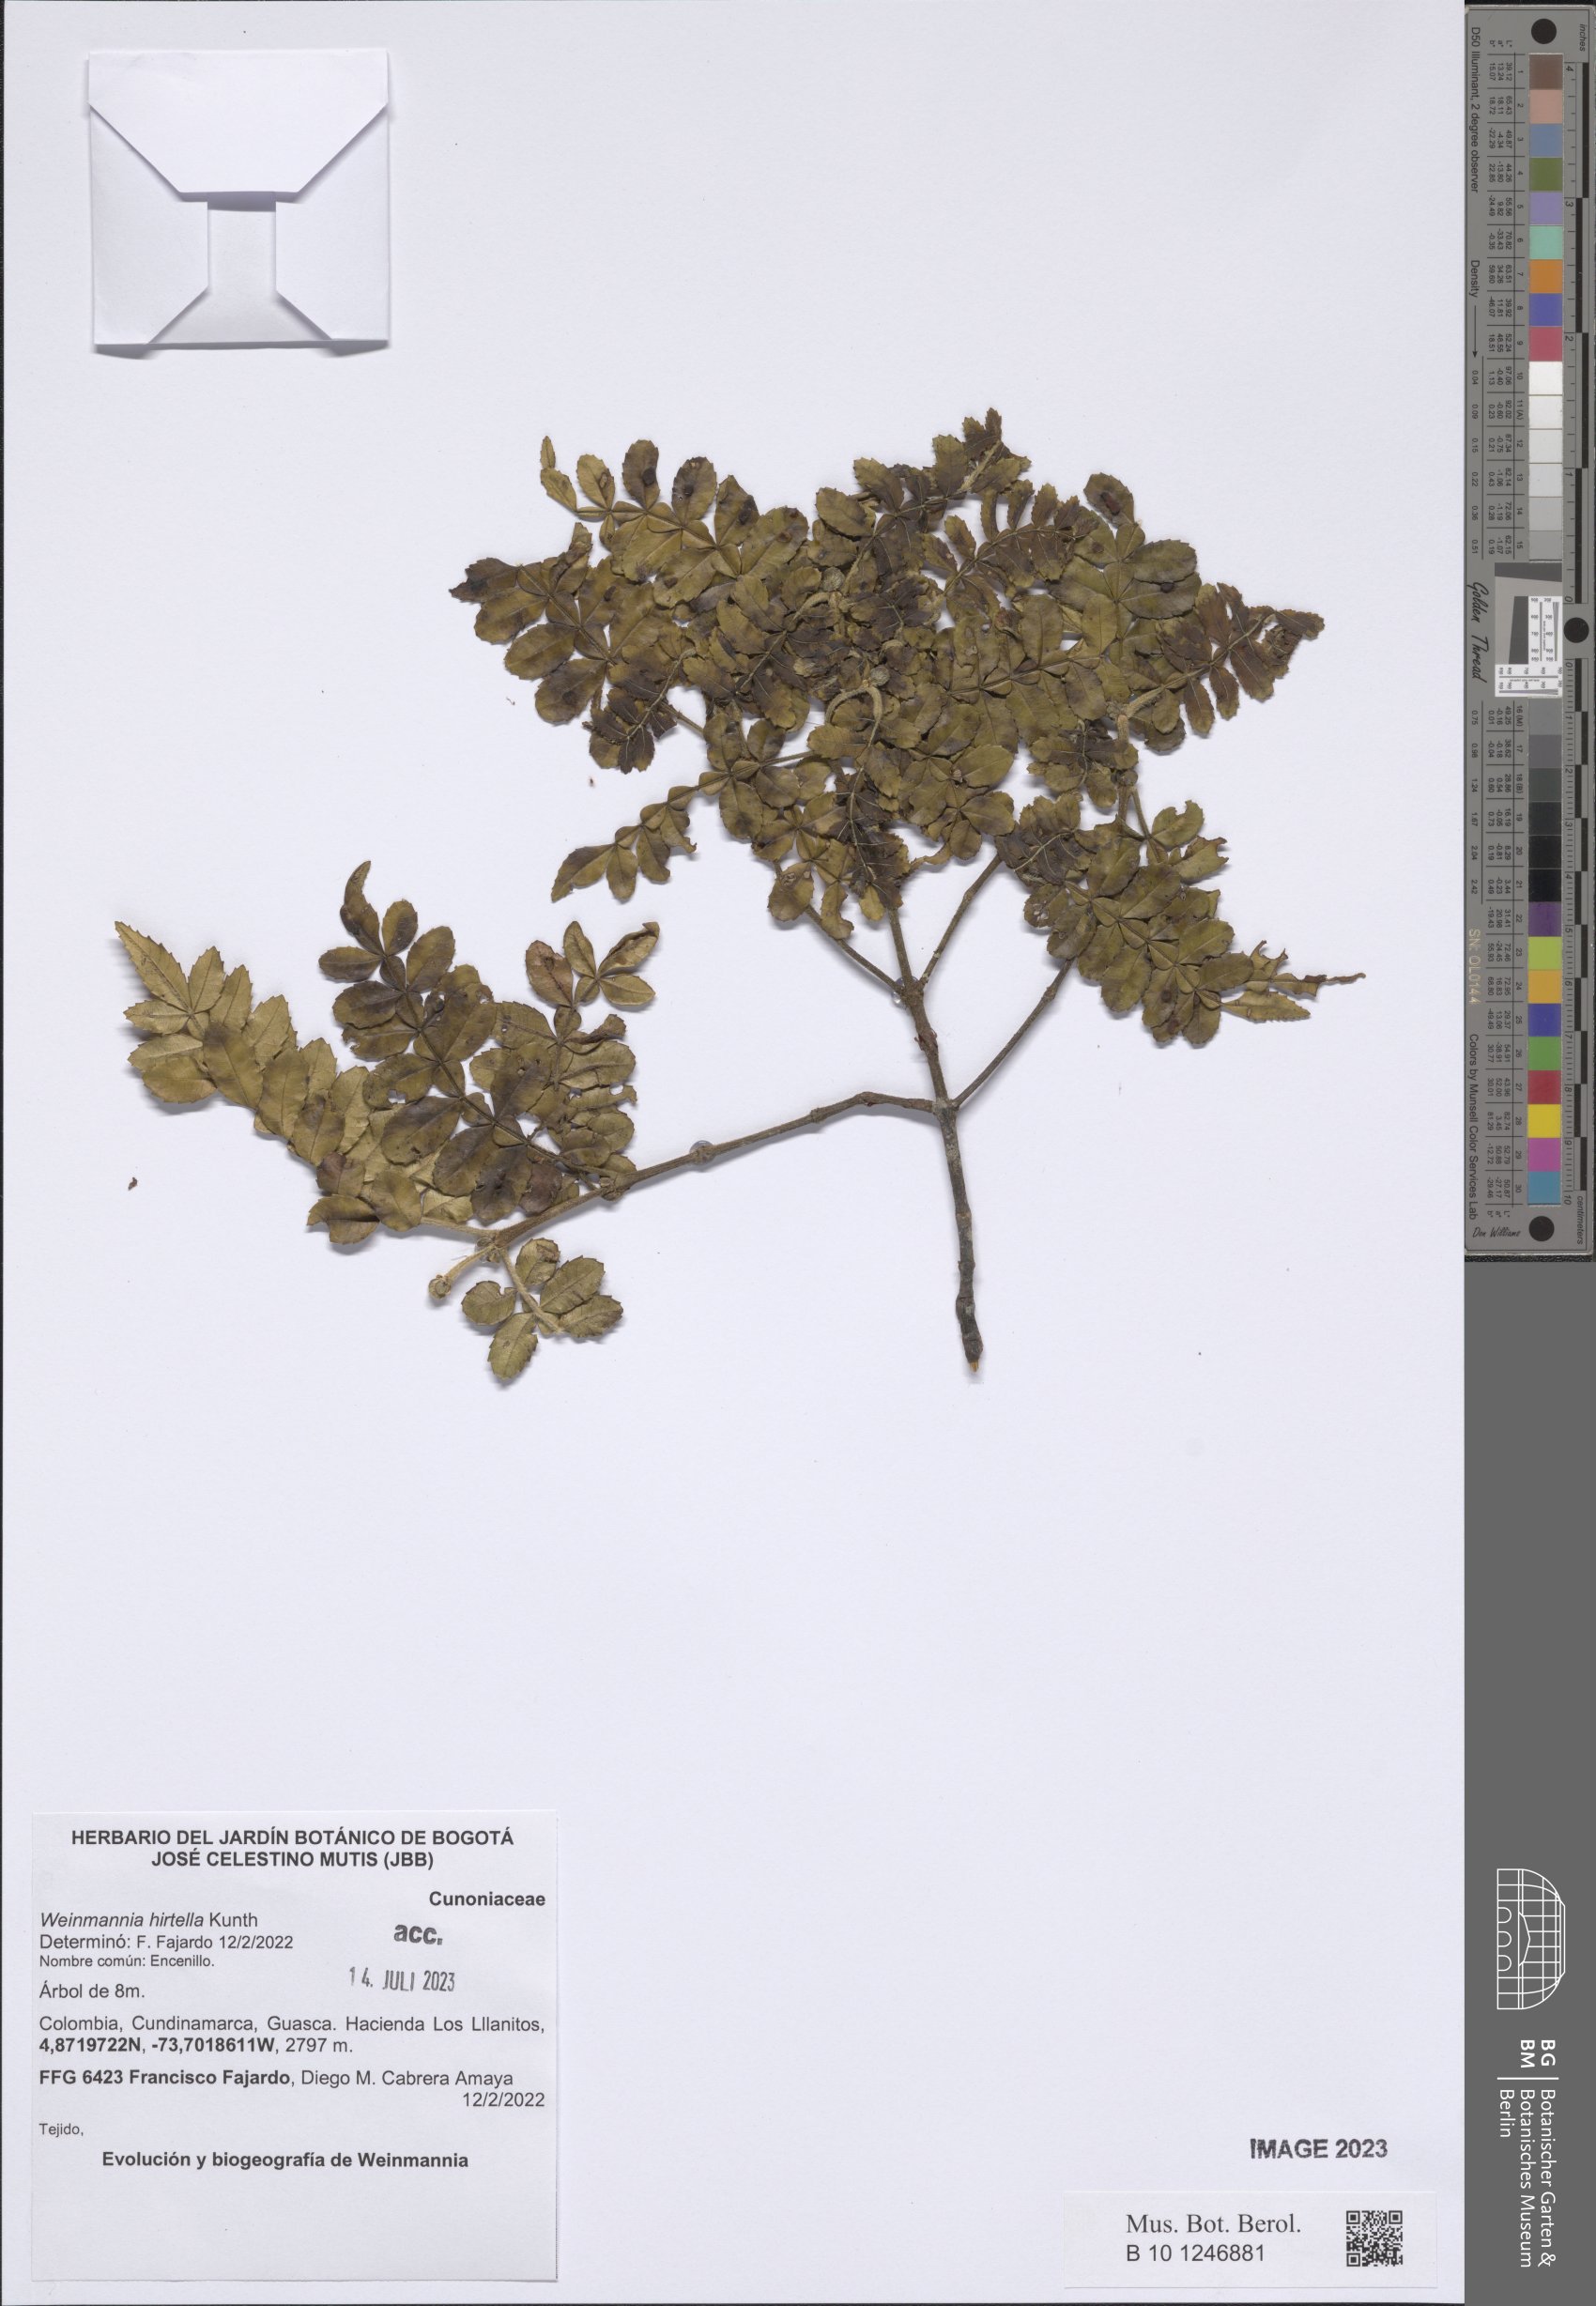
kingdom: Plantae
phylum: Tracheophyta
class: Magnoliopsida
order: Oxalidales
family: Cunoniaceae
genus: Weinmannia
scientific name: Weinmannia pinnata
